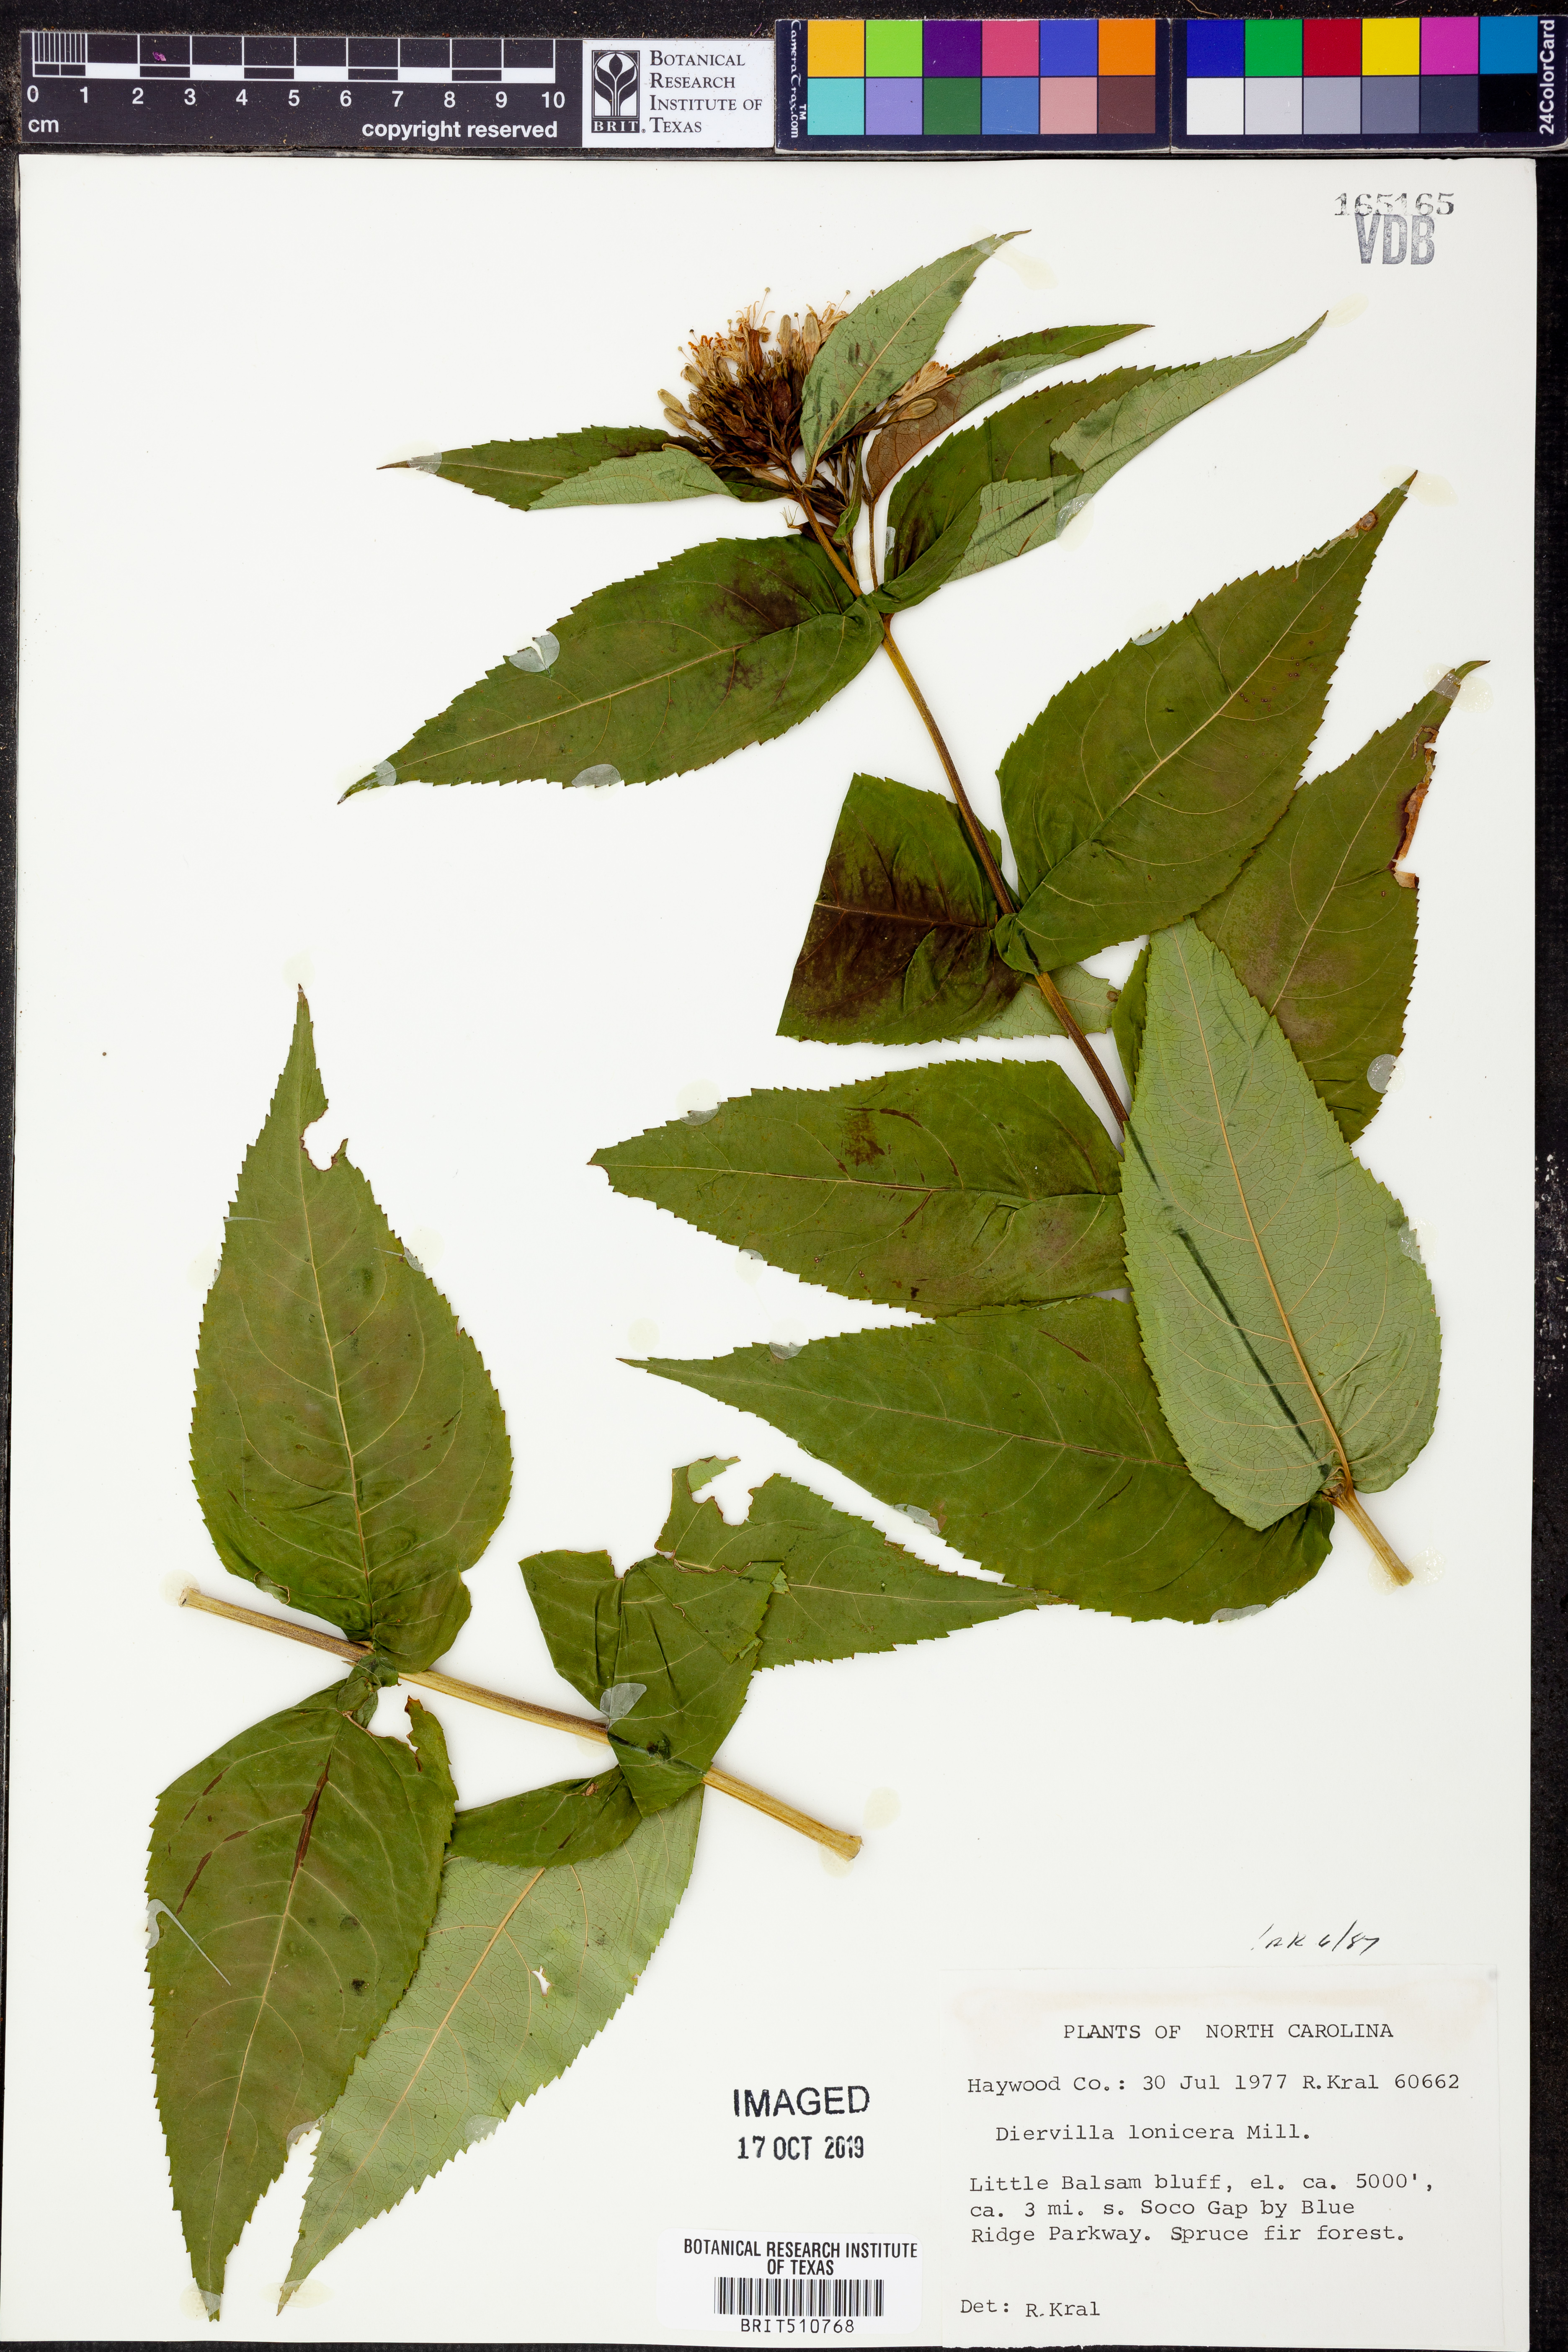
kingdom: Plantae
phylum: Tracheophyta
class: Magnoliopsida
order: Dipsacales
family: Caprifoliaceae
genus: Diervilla
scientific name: Diervilla lonicera
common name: Bush-honeysuckle
